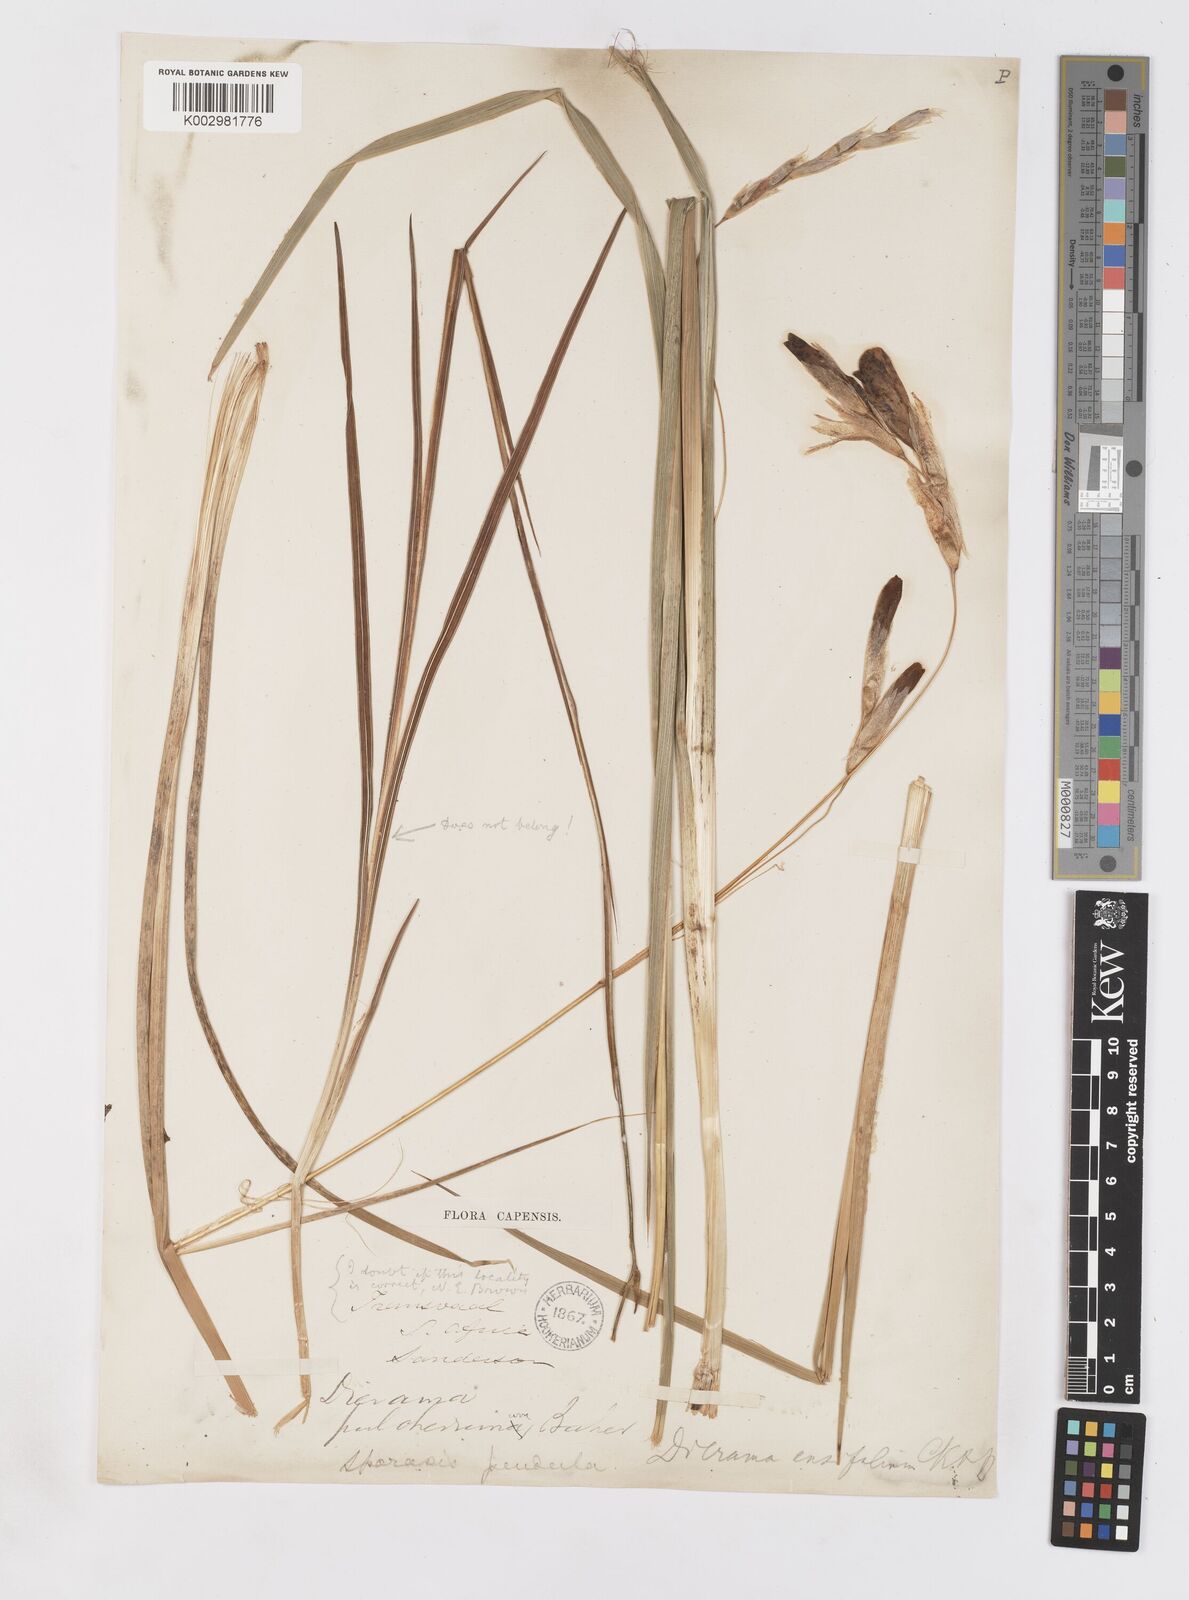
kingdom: Plantae
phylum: Tracheophyta
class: Liliopsida
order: Asparagales
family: Iridaceae
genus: Dierama
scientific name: Dierama pulcherrimum
